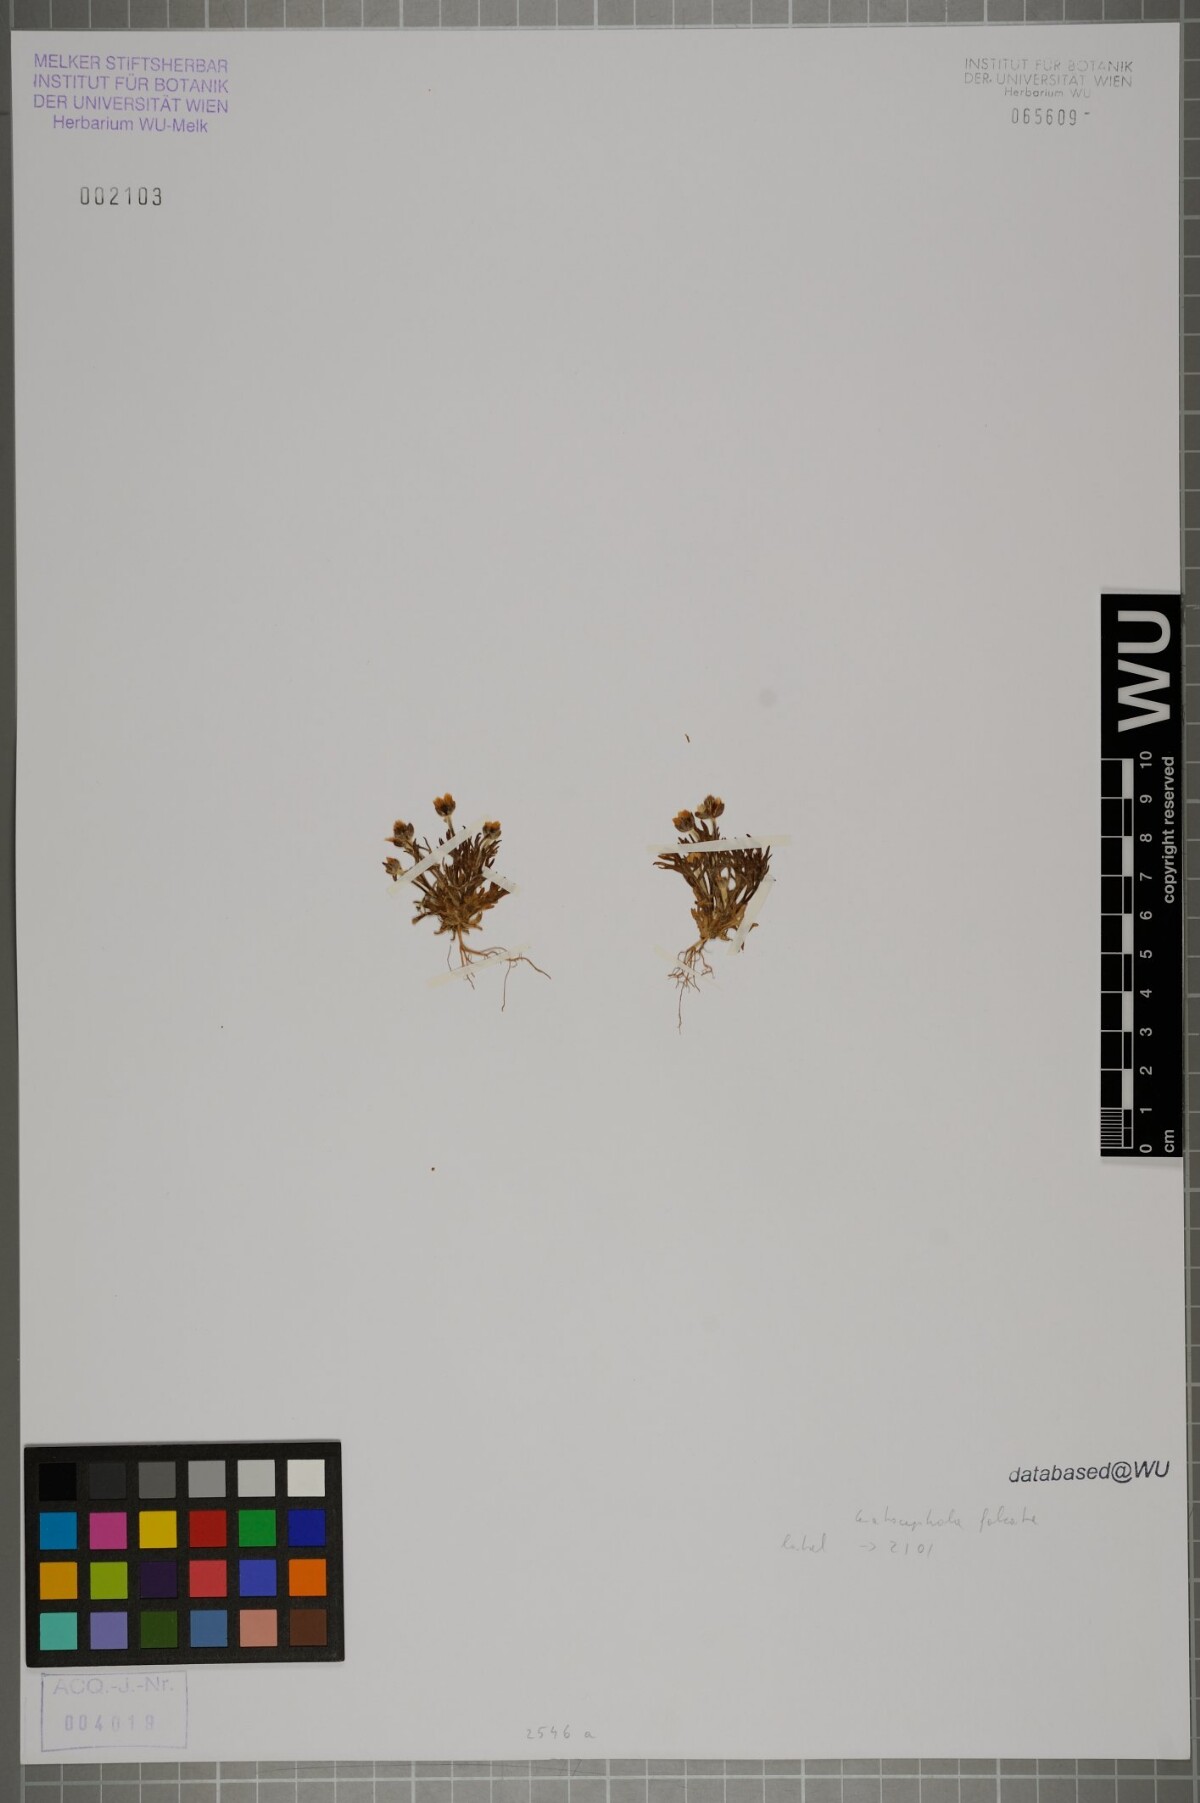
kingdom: Plantae
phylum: Tracheophyta
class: Magnoliopsida
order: Ranunculales
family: Ranunculaceae
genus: Ceratocephala
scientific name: Ceratocephala falcata
